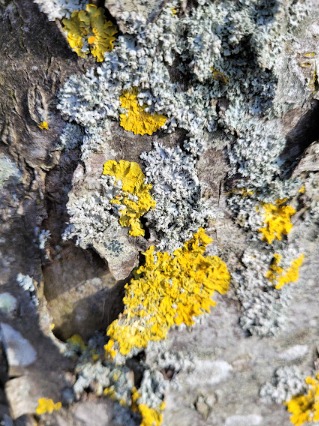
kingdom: Fungi
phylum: Ascomycota
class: Lecanoromycetes
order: Teloschistales
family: Teloschistaceae
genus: Xanthoria
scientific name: Xanthoria parietina
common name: Almindelig væggelav
